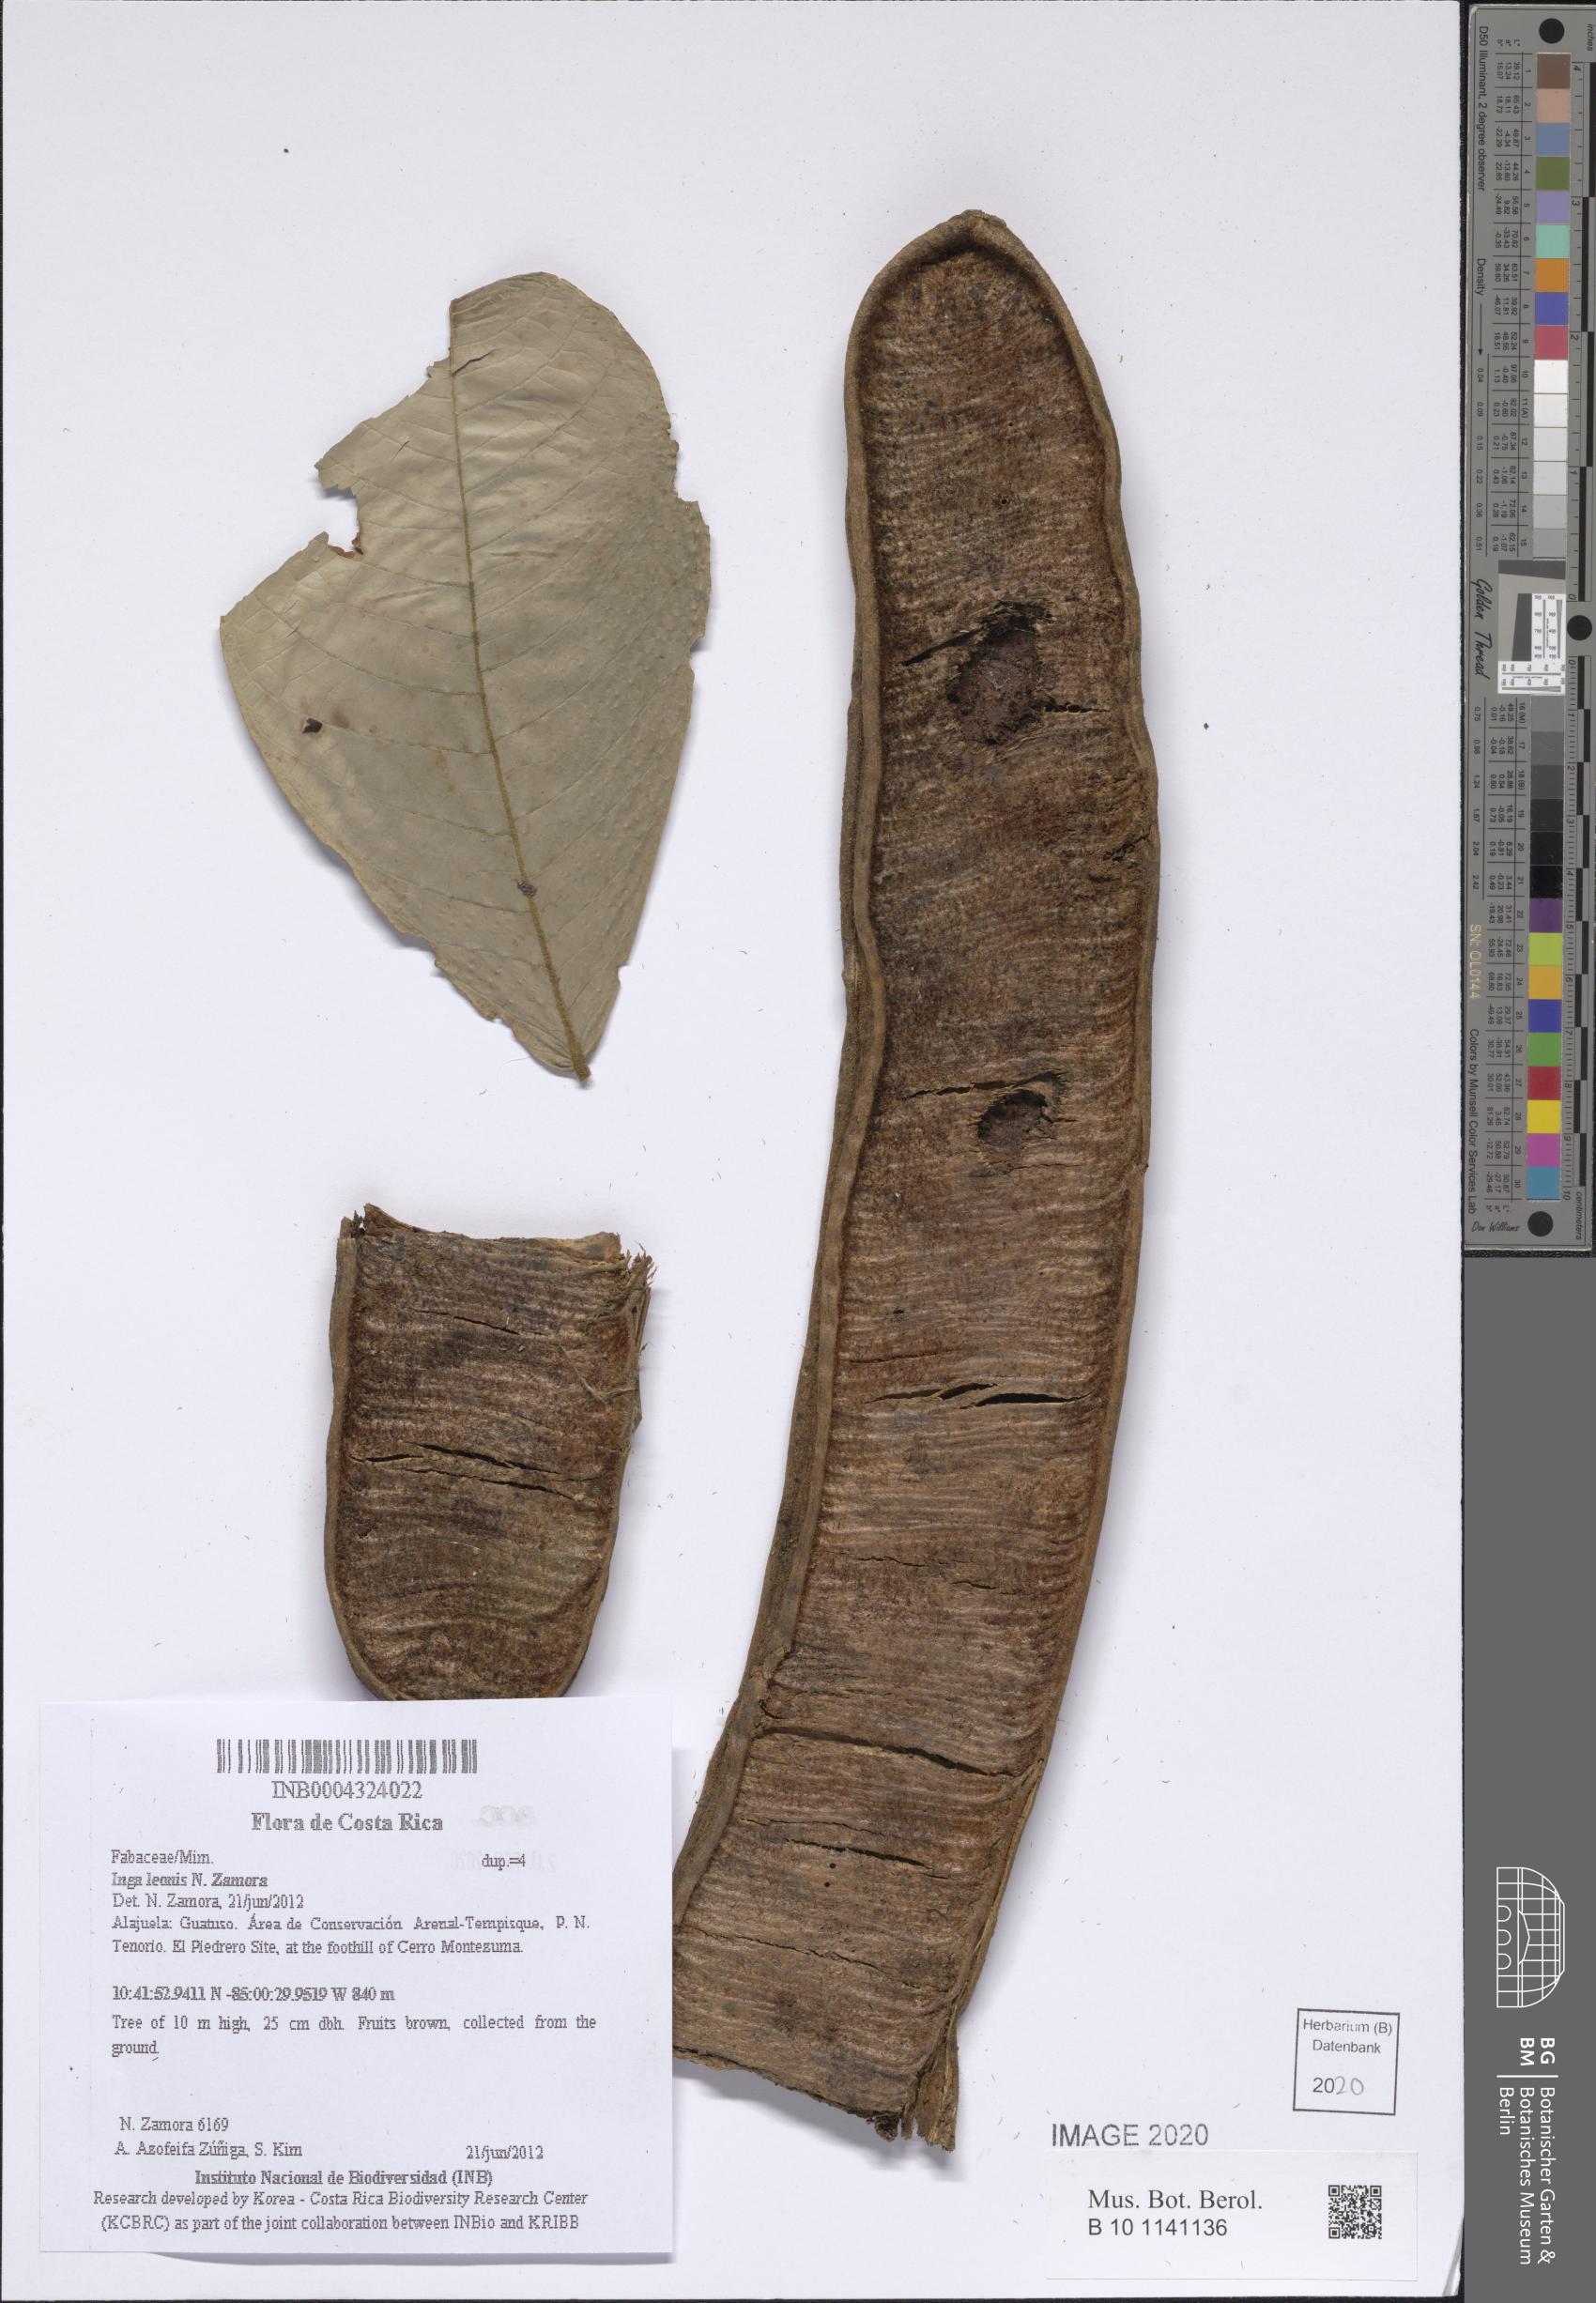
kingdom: Plantae
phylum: Tracheophyta
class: Magnoliopsida
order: Fabales
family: Fabaceae
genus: Inga
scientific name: Inga leonis
